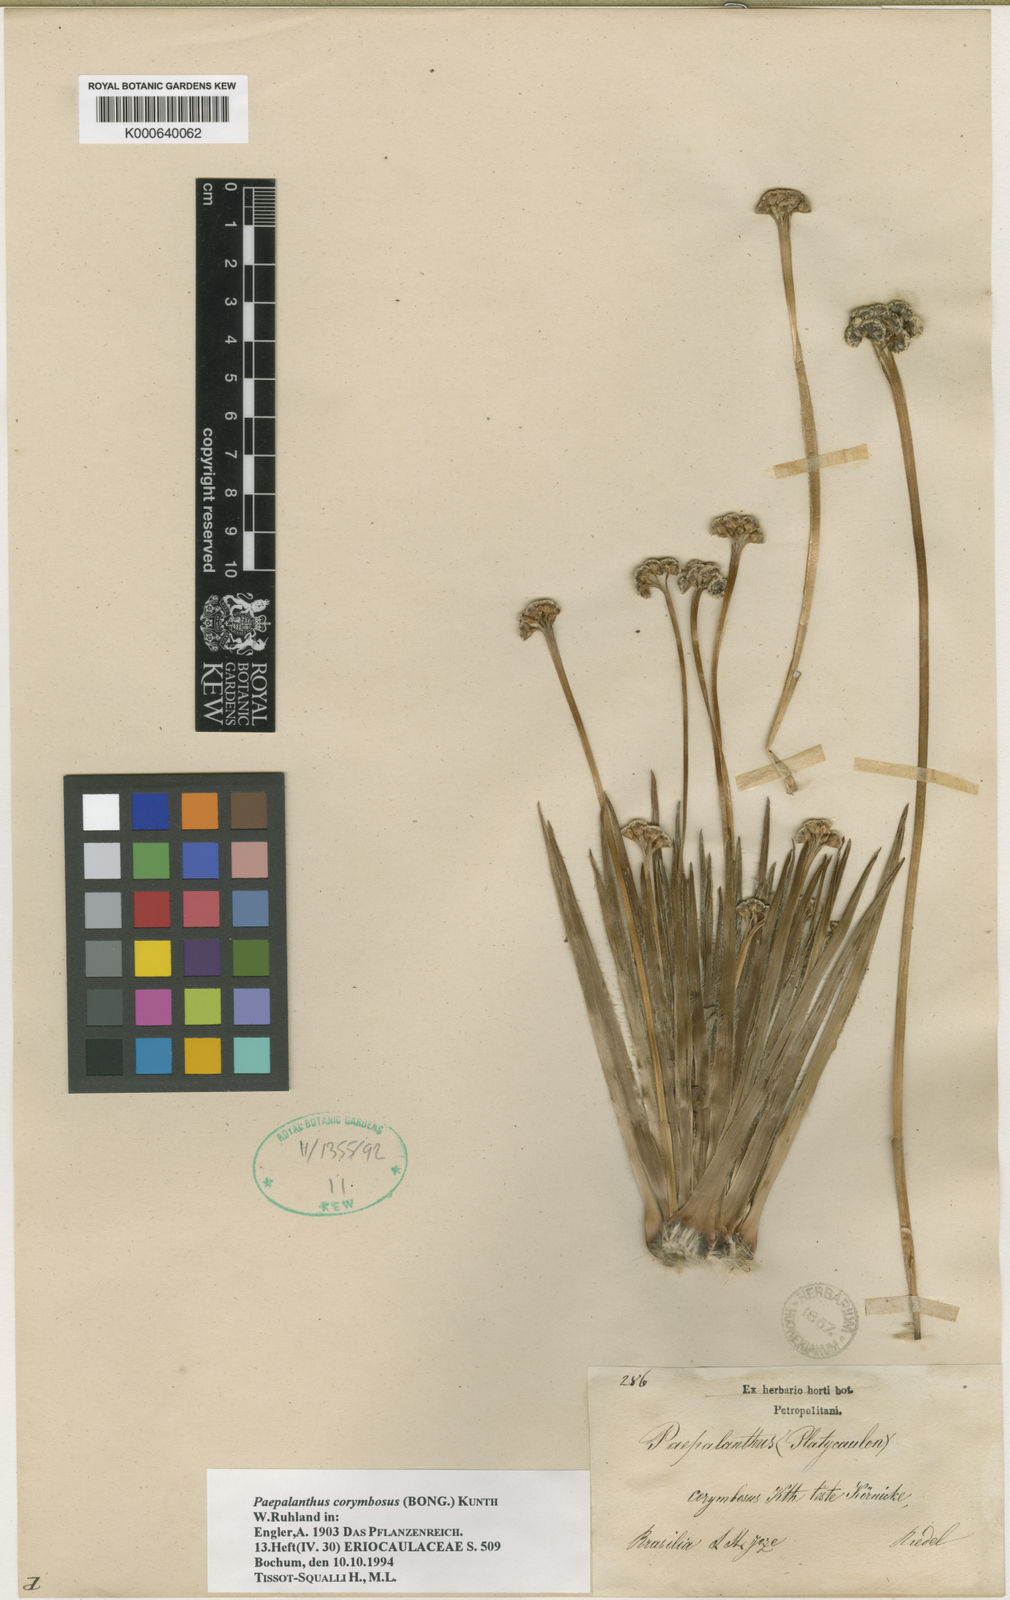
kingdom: Plantae
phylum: Tracheophyta
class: Liliopsida
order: Poales
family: Eriocaulaceae
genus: Paepalanthus
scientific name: Paepalanthus corymbosus
